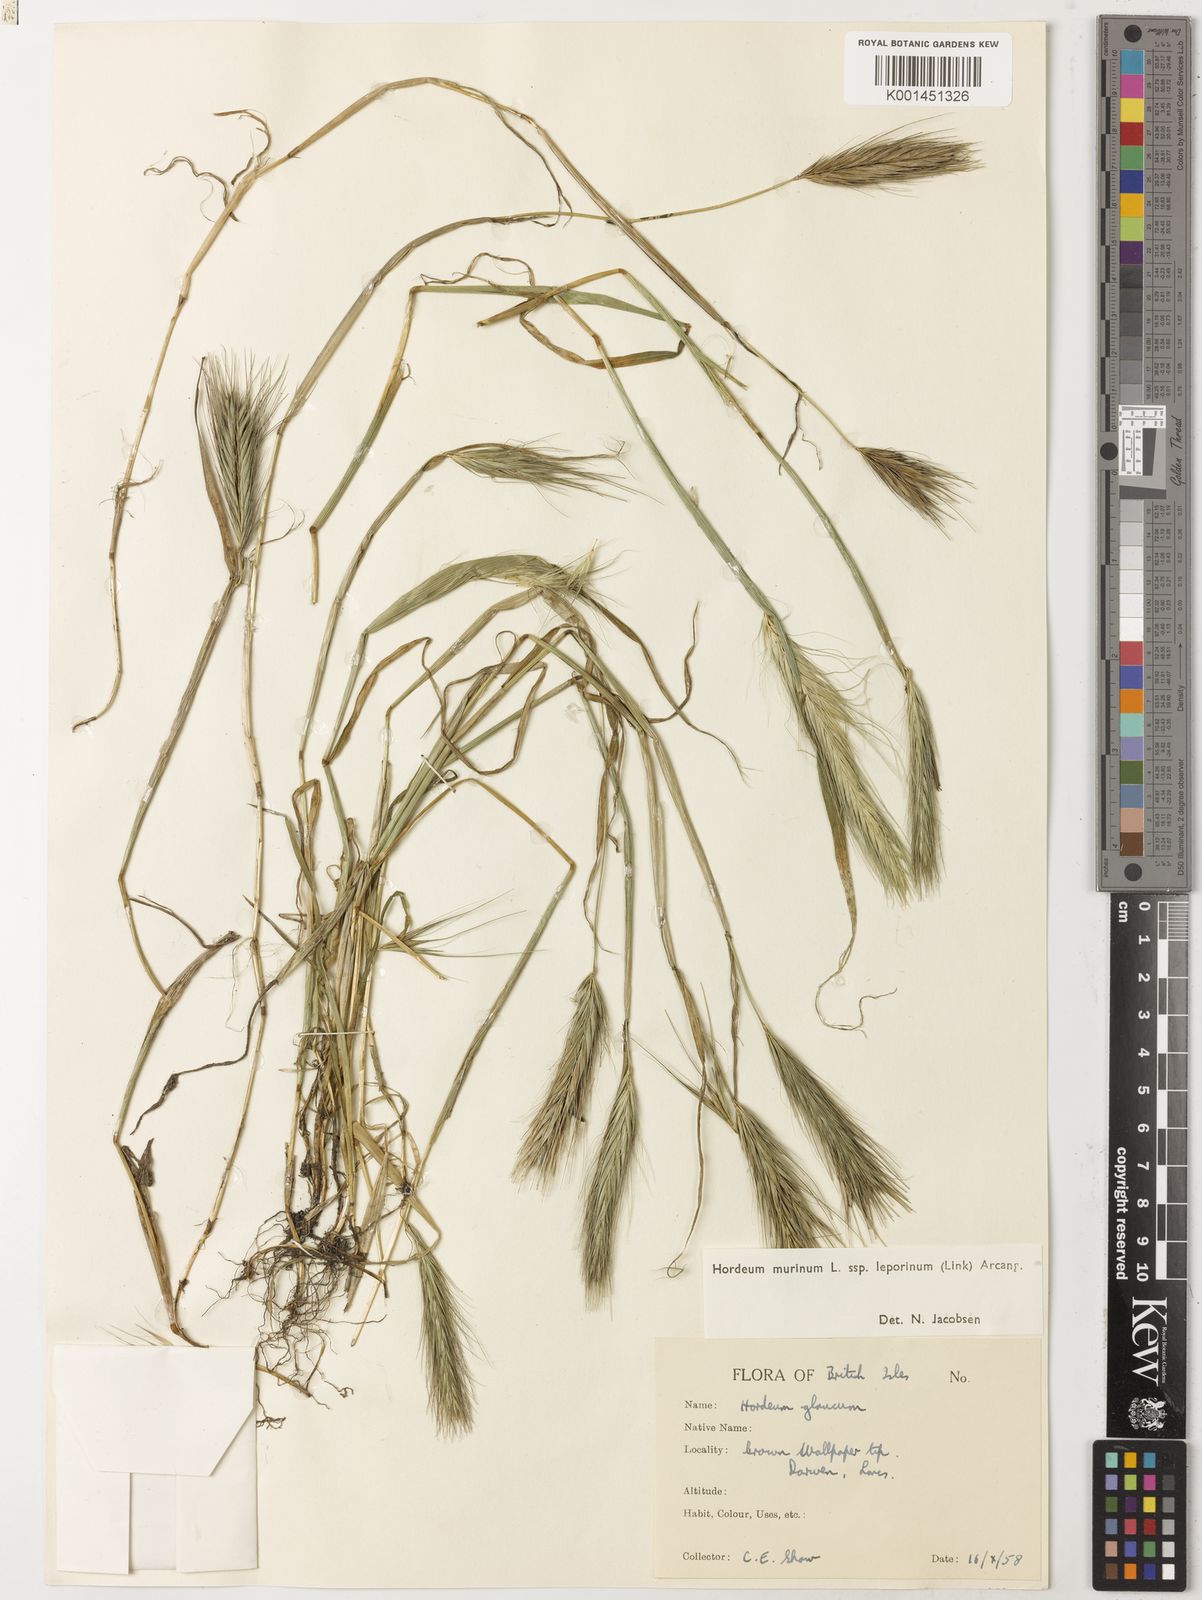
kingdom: Plantae
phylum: Tracheophyta
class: Liliopsida
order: Poales
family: Poaceae
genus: Hordeum
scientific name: Hordeum murinum
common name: Wall barley
